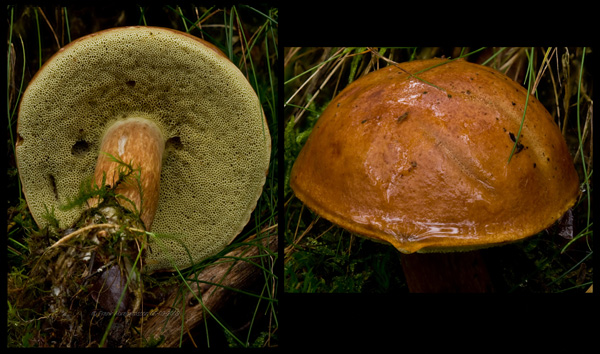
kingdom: Fungi
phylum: Basidiomycota
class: Agaricomycetes
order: Boletales
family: Boletaceae
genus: Imleria
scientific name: Imleria badia
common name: brunstokket rørhat
